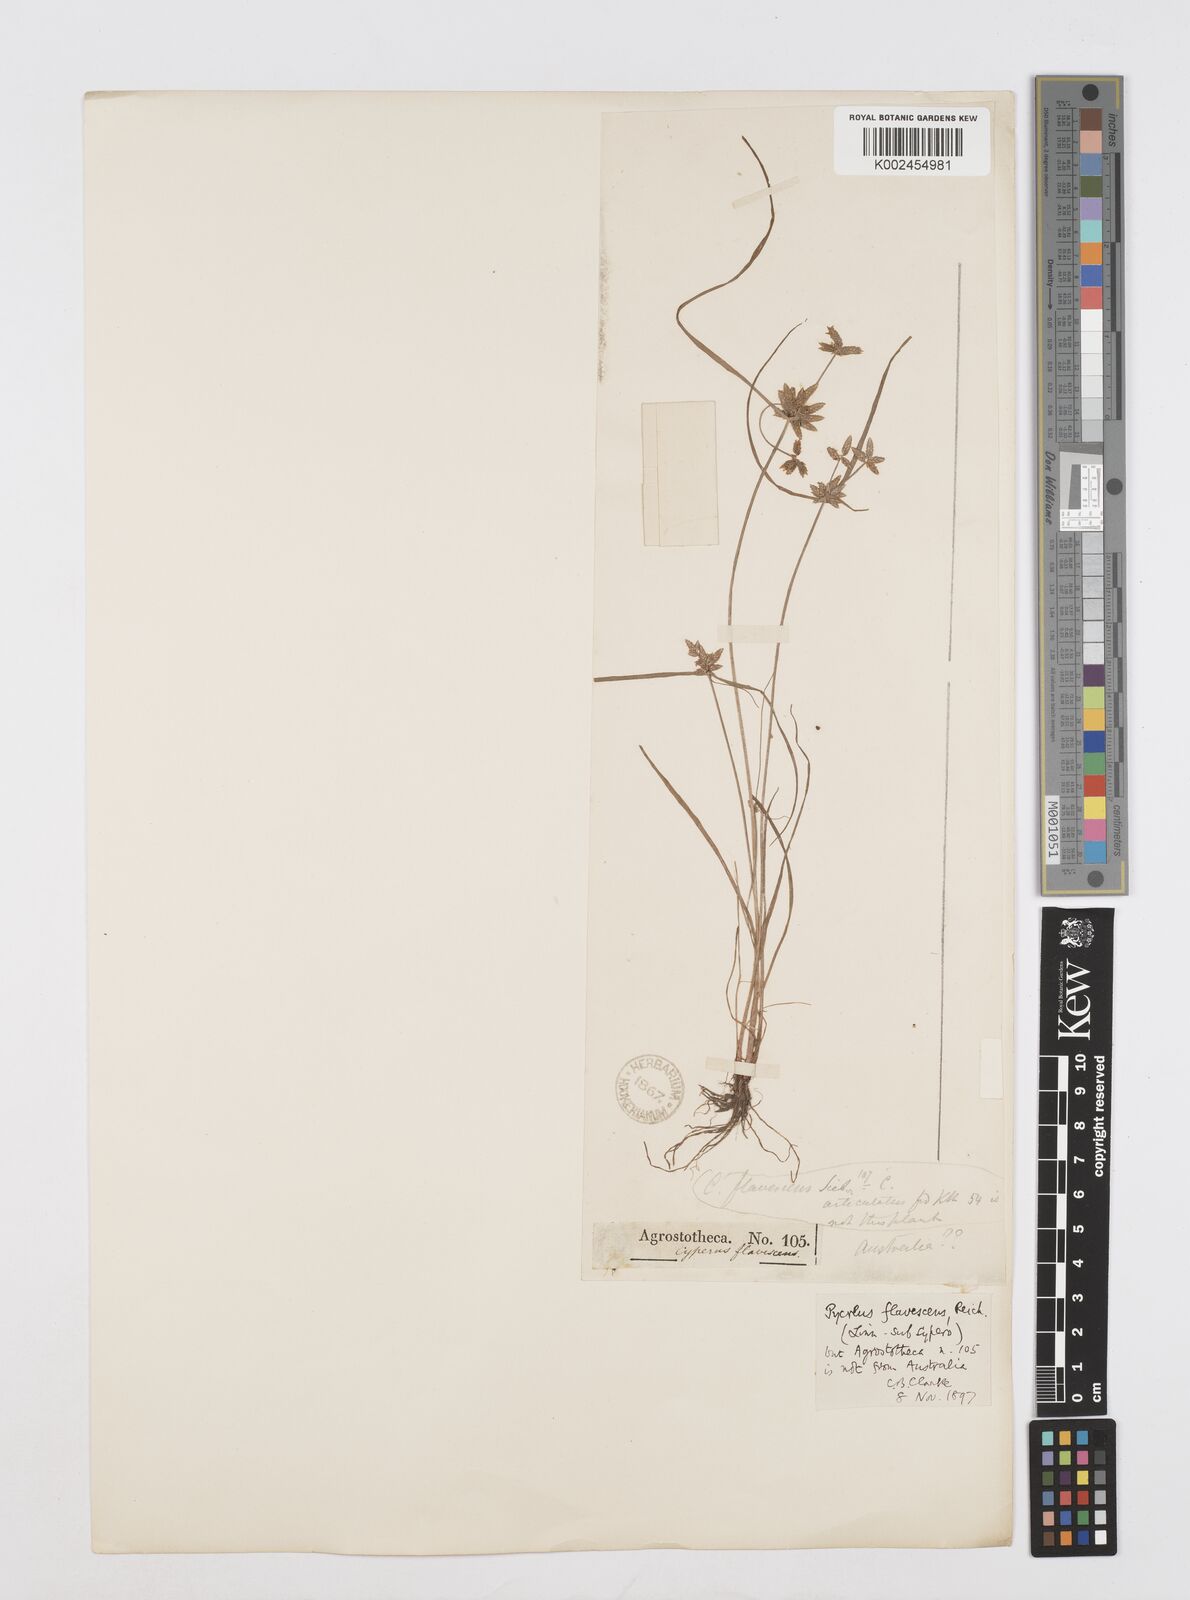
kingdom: Plantae
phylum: Tracheophyta
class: Liliopsida
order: Poales
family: Cyperaceae
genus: Cyperus
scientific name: Cyperus flavescens
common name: Yellow galingale
